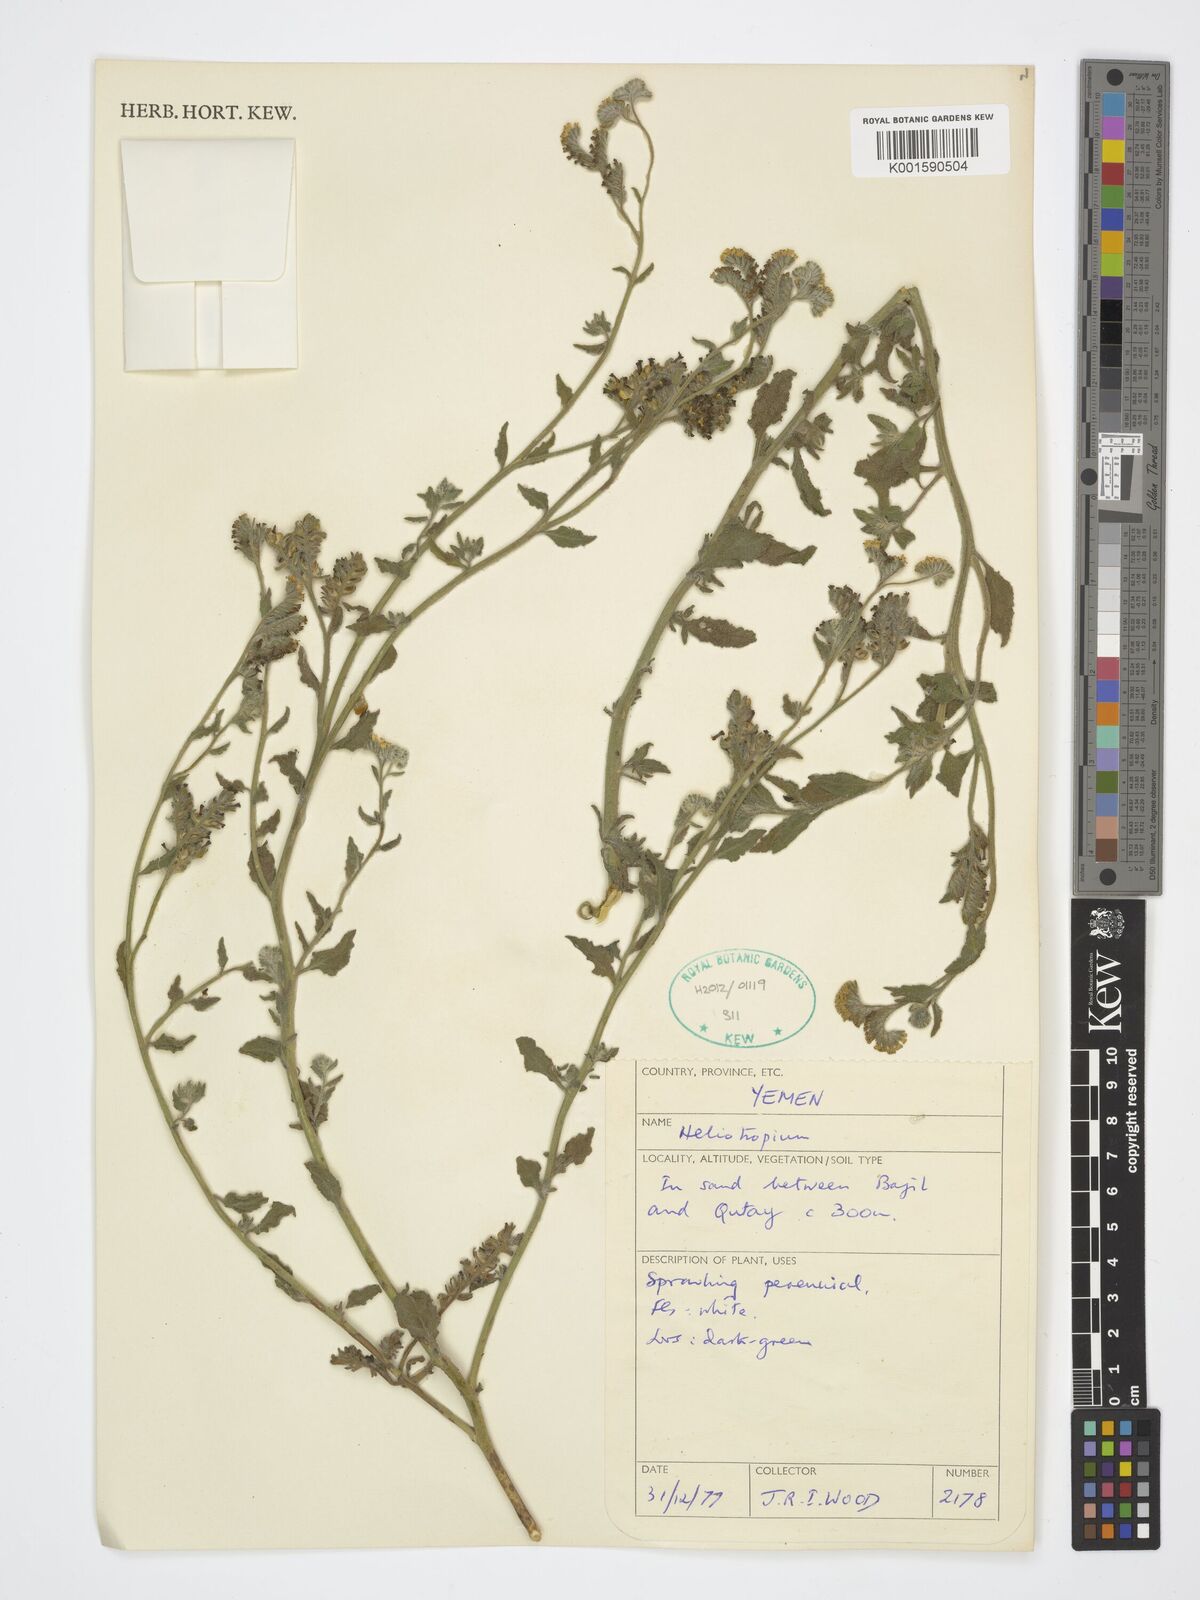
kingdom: Plantae
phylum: Tracheophyta
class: Magnoliopsida
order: Boraginales
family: Heliotropiaceae
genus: Heliotropium
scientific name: Heliotropium
